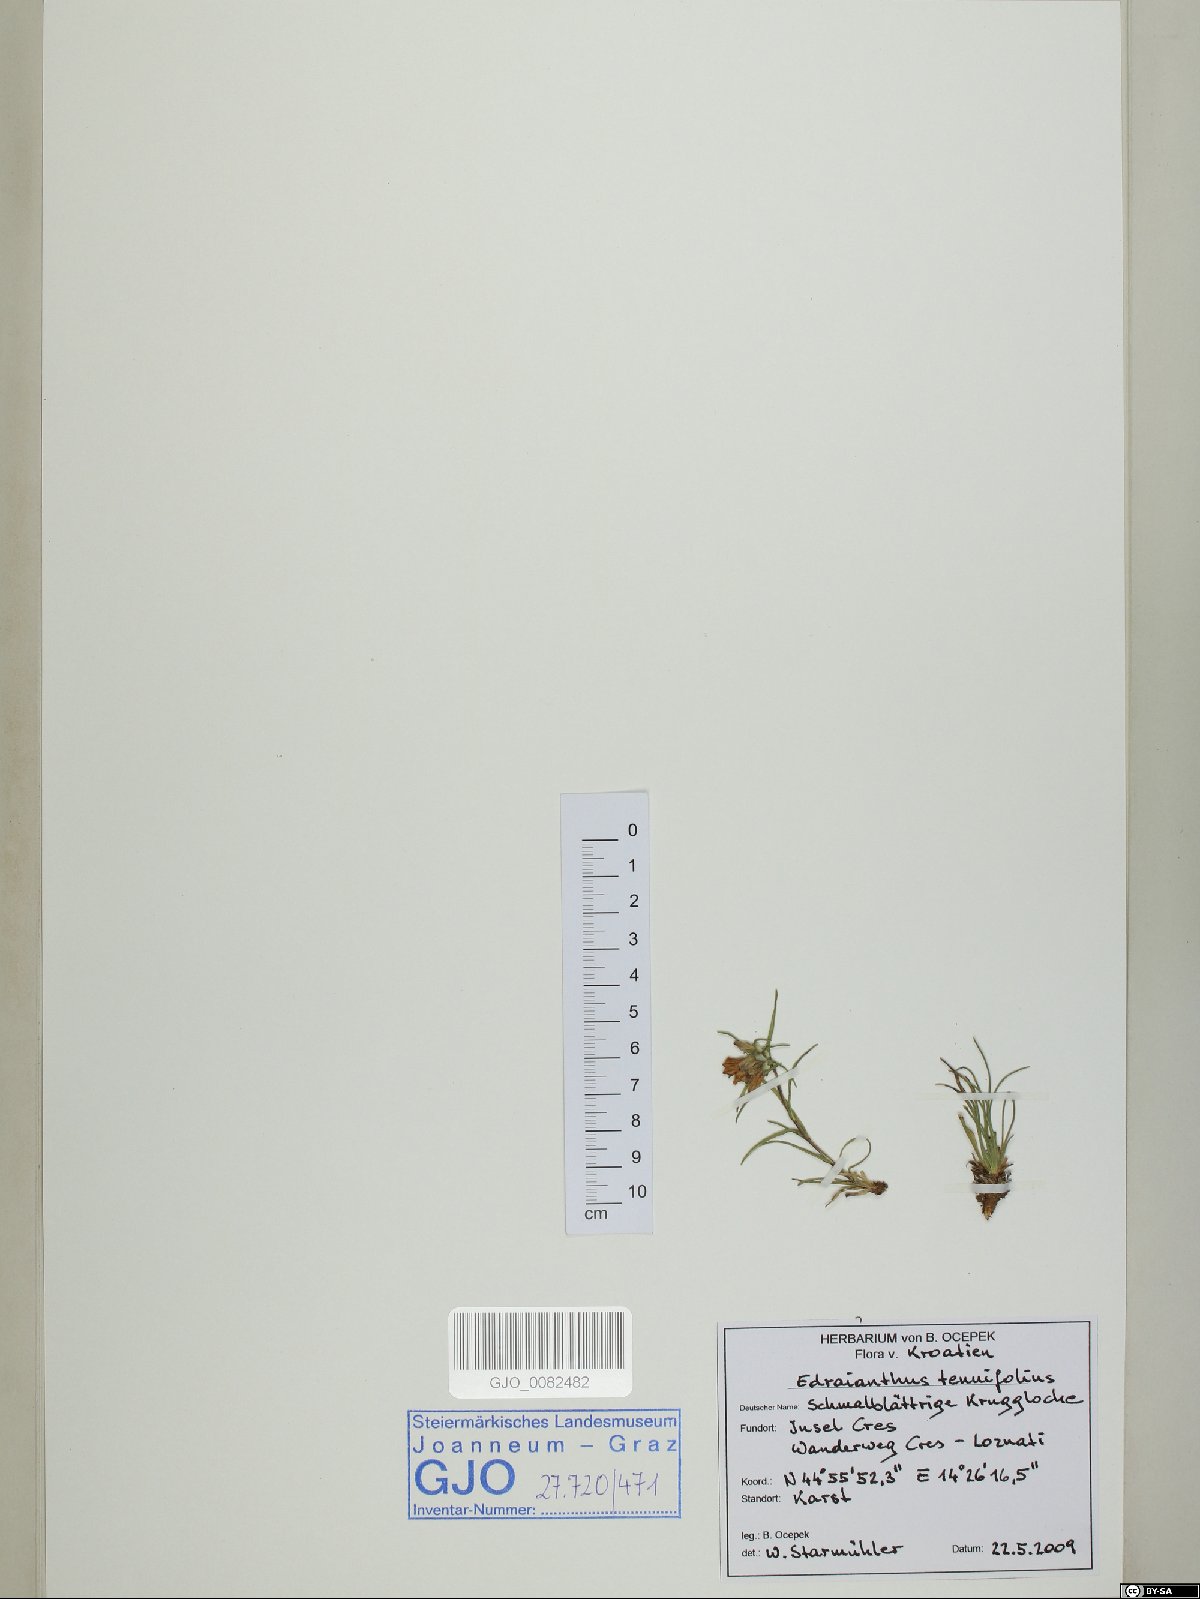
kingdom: Plantae
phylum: Tracheophyta
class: Magnoliopsida
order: Asterales
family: Campanulaceae
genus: Edraianthus
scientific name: Edraianthus tenuifolius
